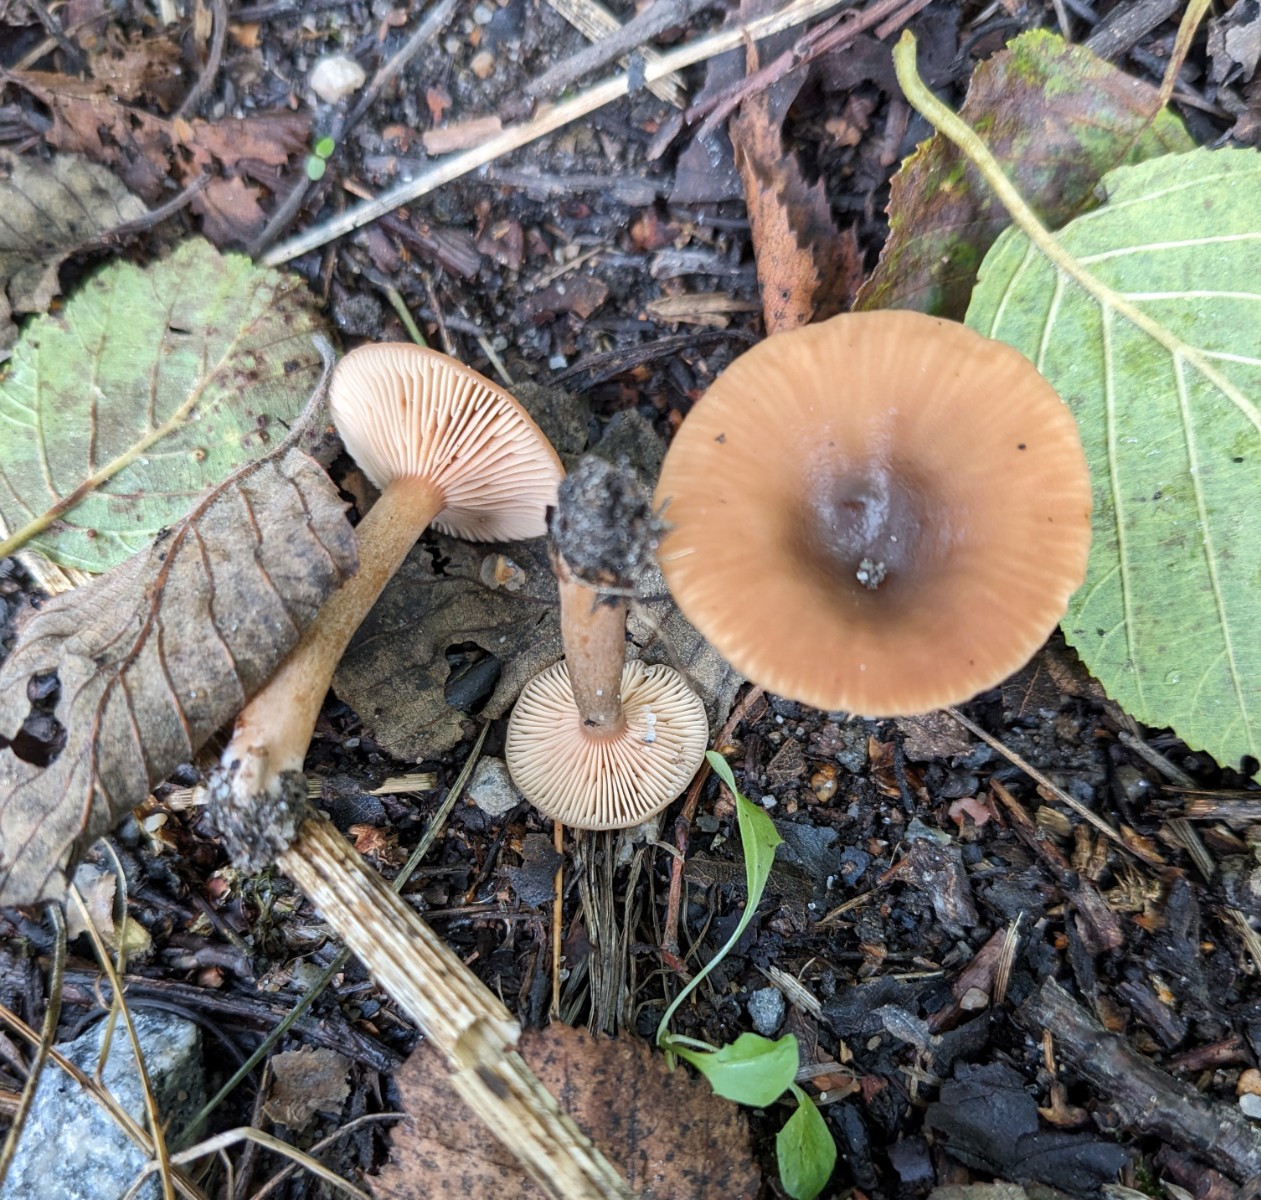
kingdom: Fungi
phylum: Basidiomycota
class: Agaricomycetes
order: Russulales
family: Russulaceae
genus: Lactarius
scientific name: Lactarius
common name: mælkehat
